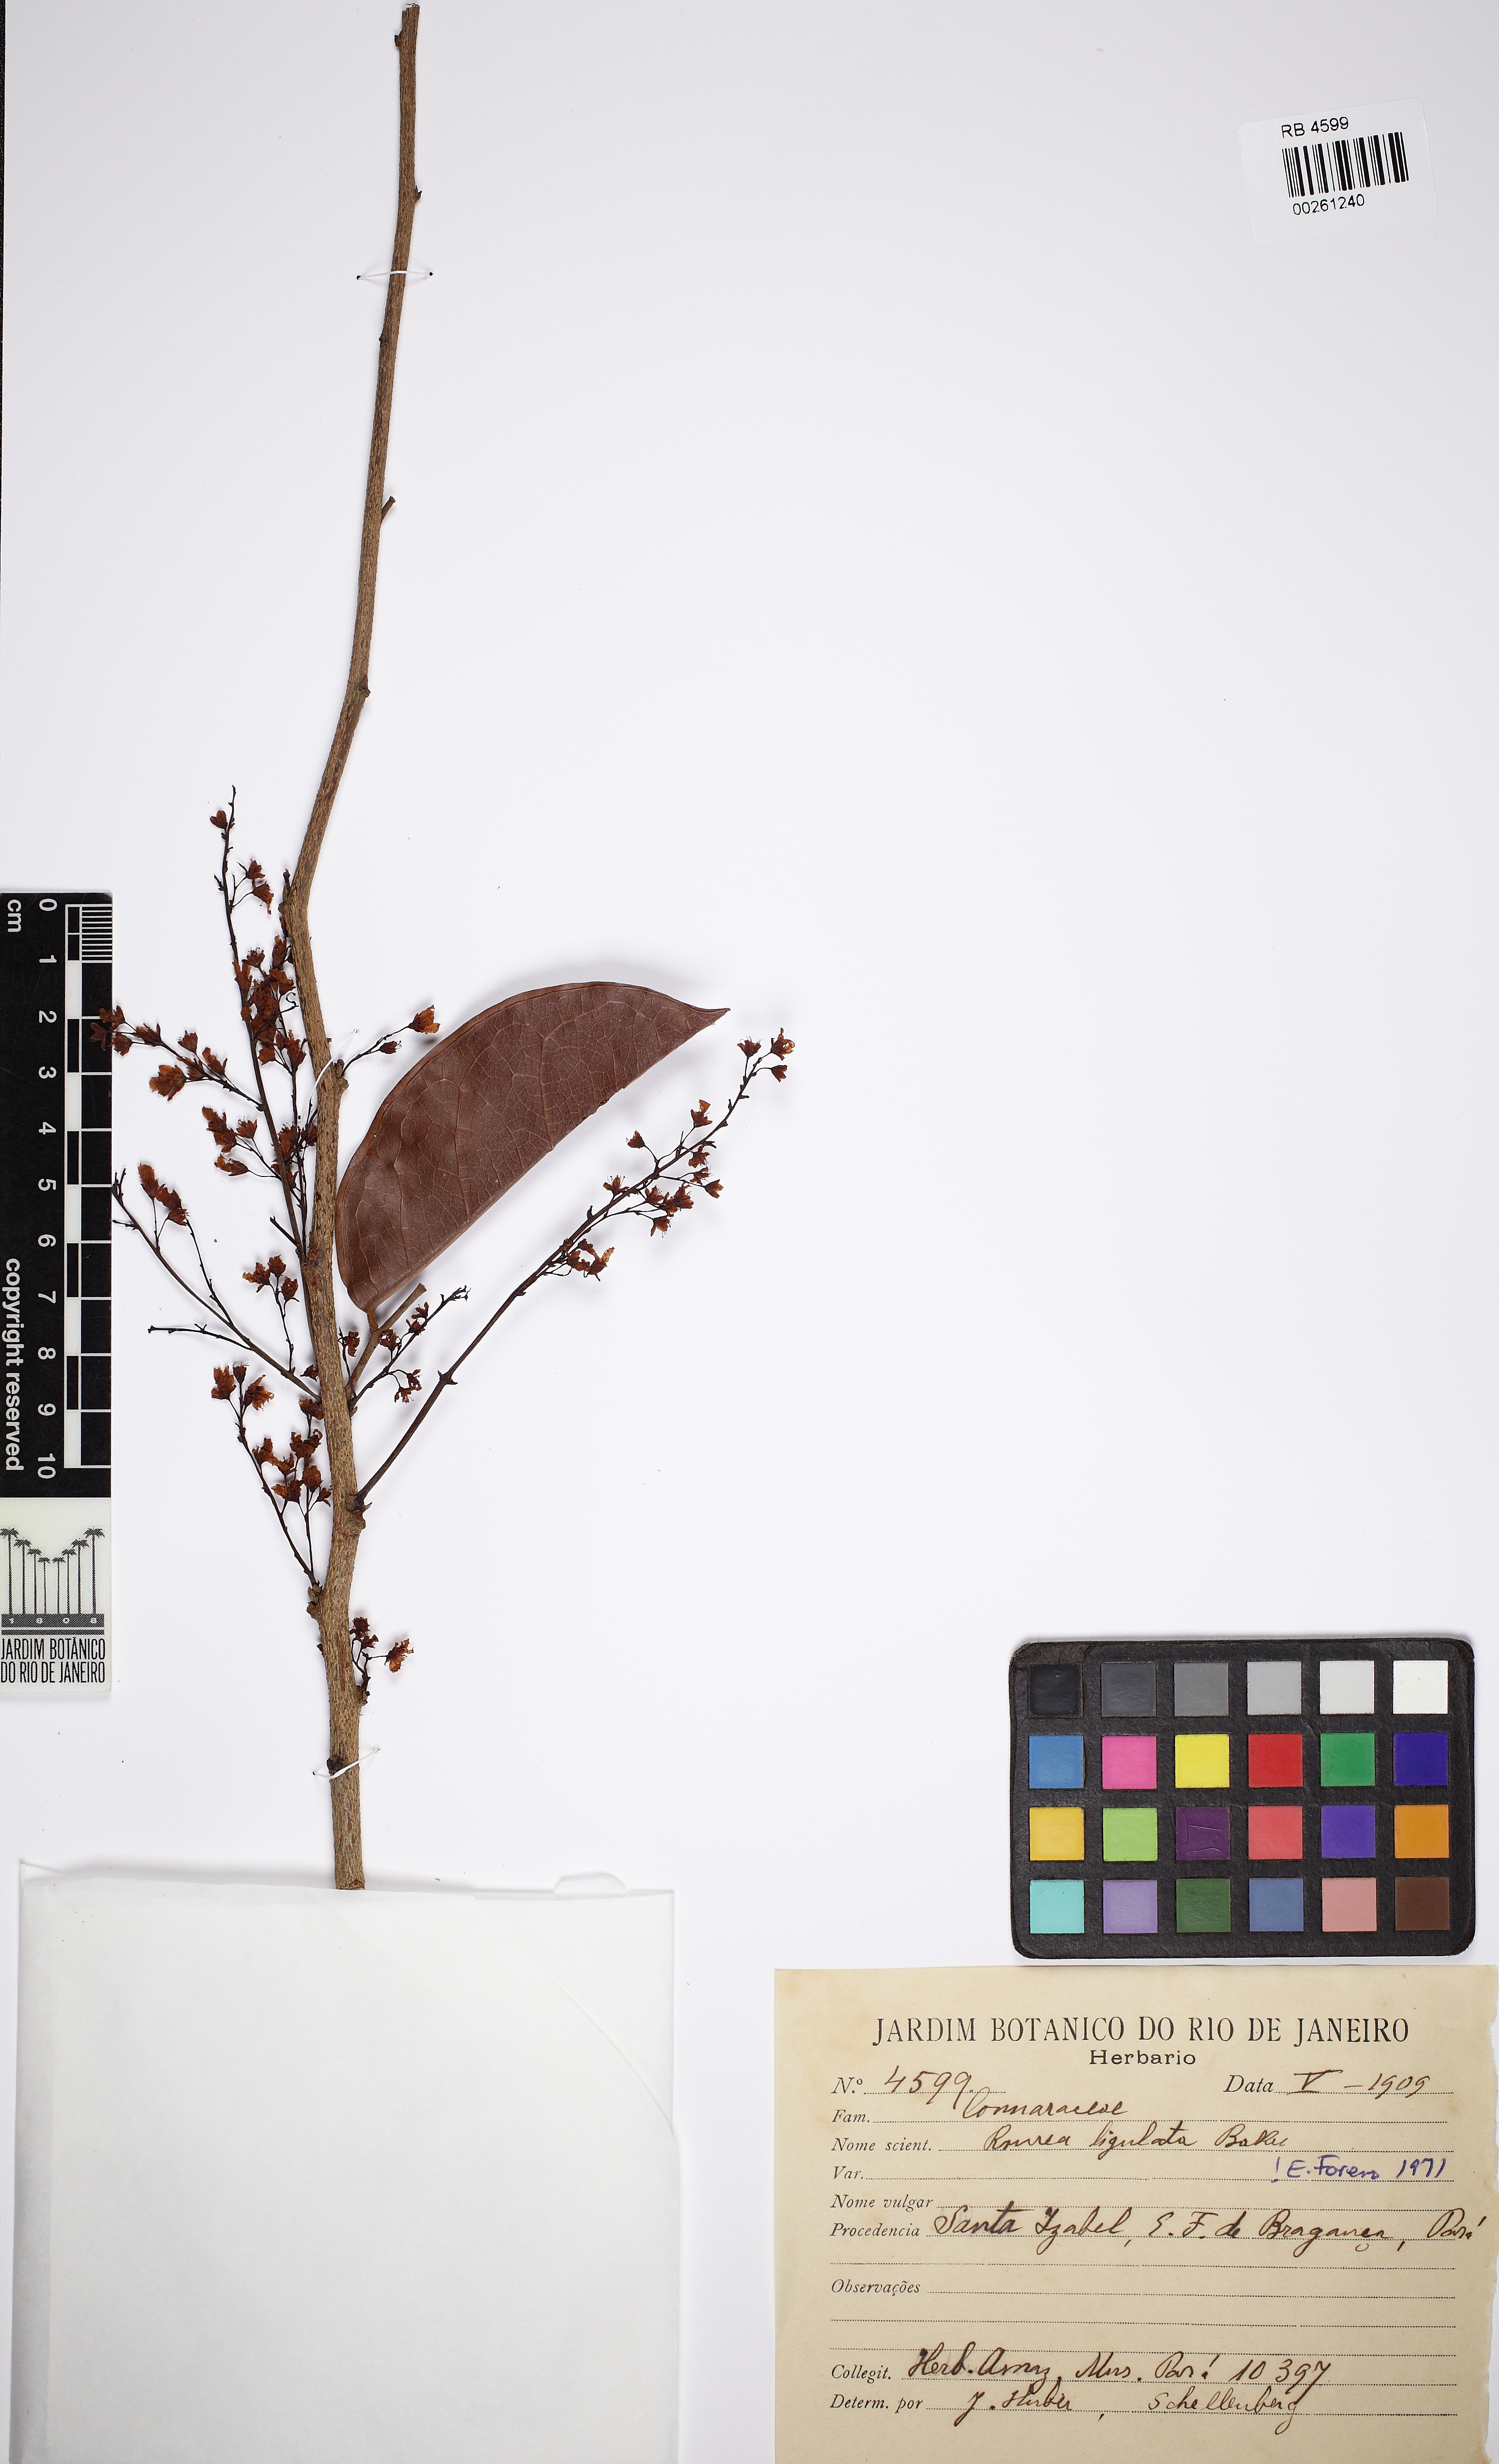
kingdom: Plantae
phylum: Tracheophyta
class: Magnoliopsida
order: Oxalidales
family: Connaraceae
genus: Rourea
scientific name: Rourea ligulata
